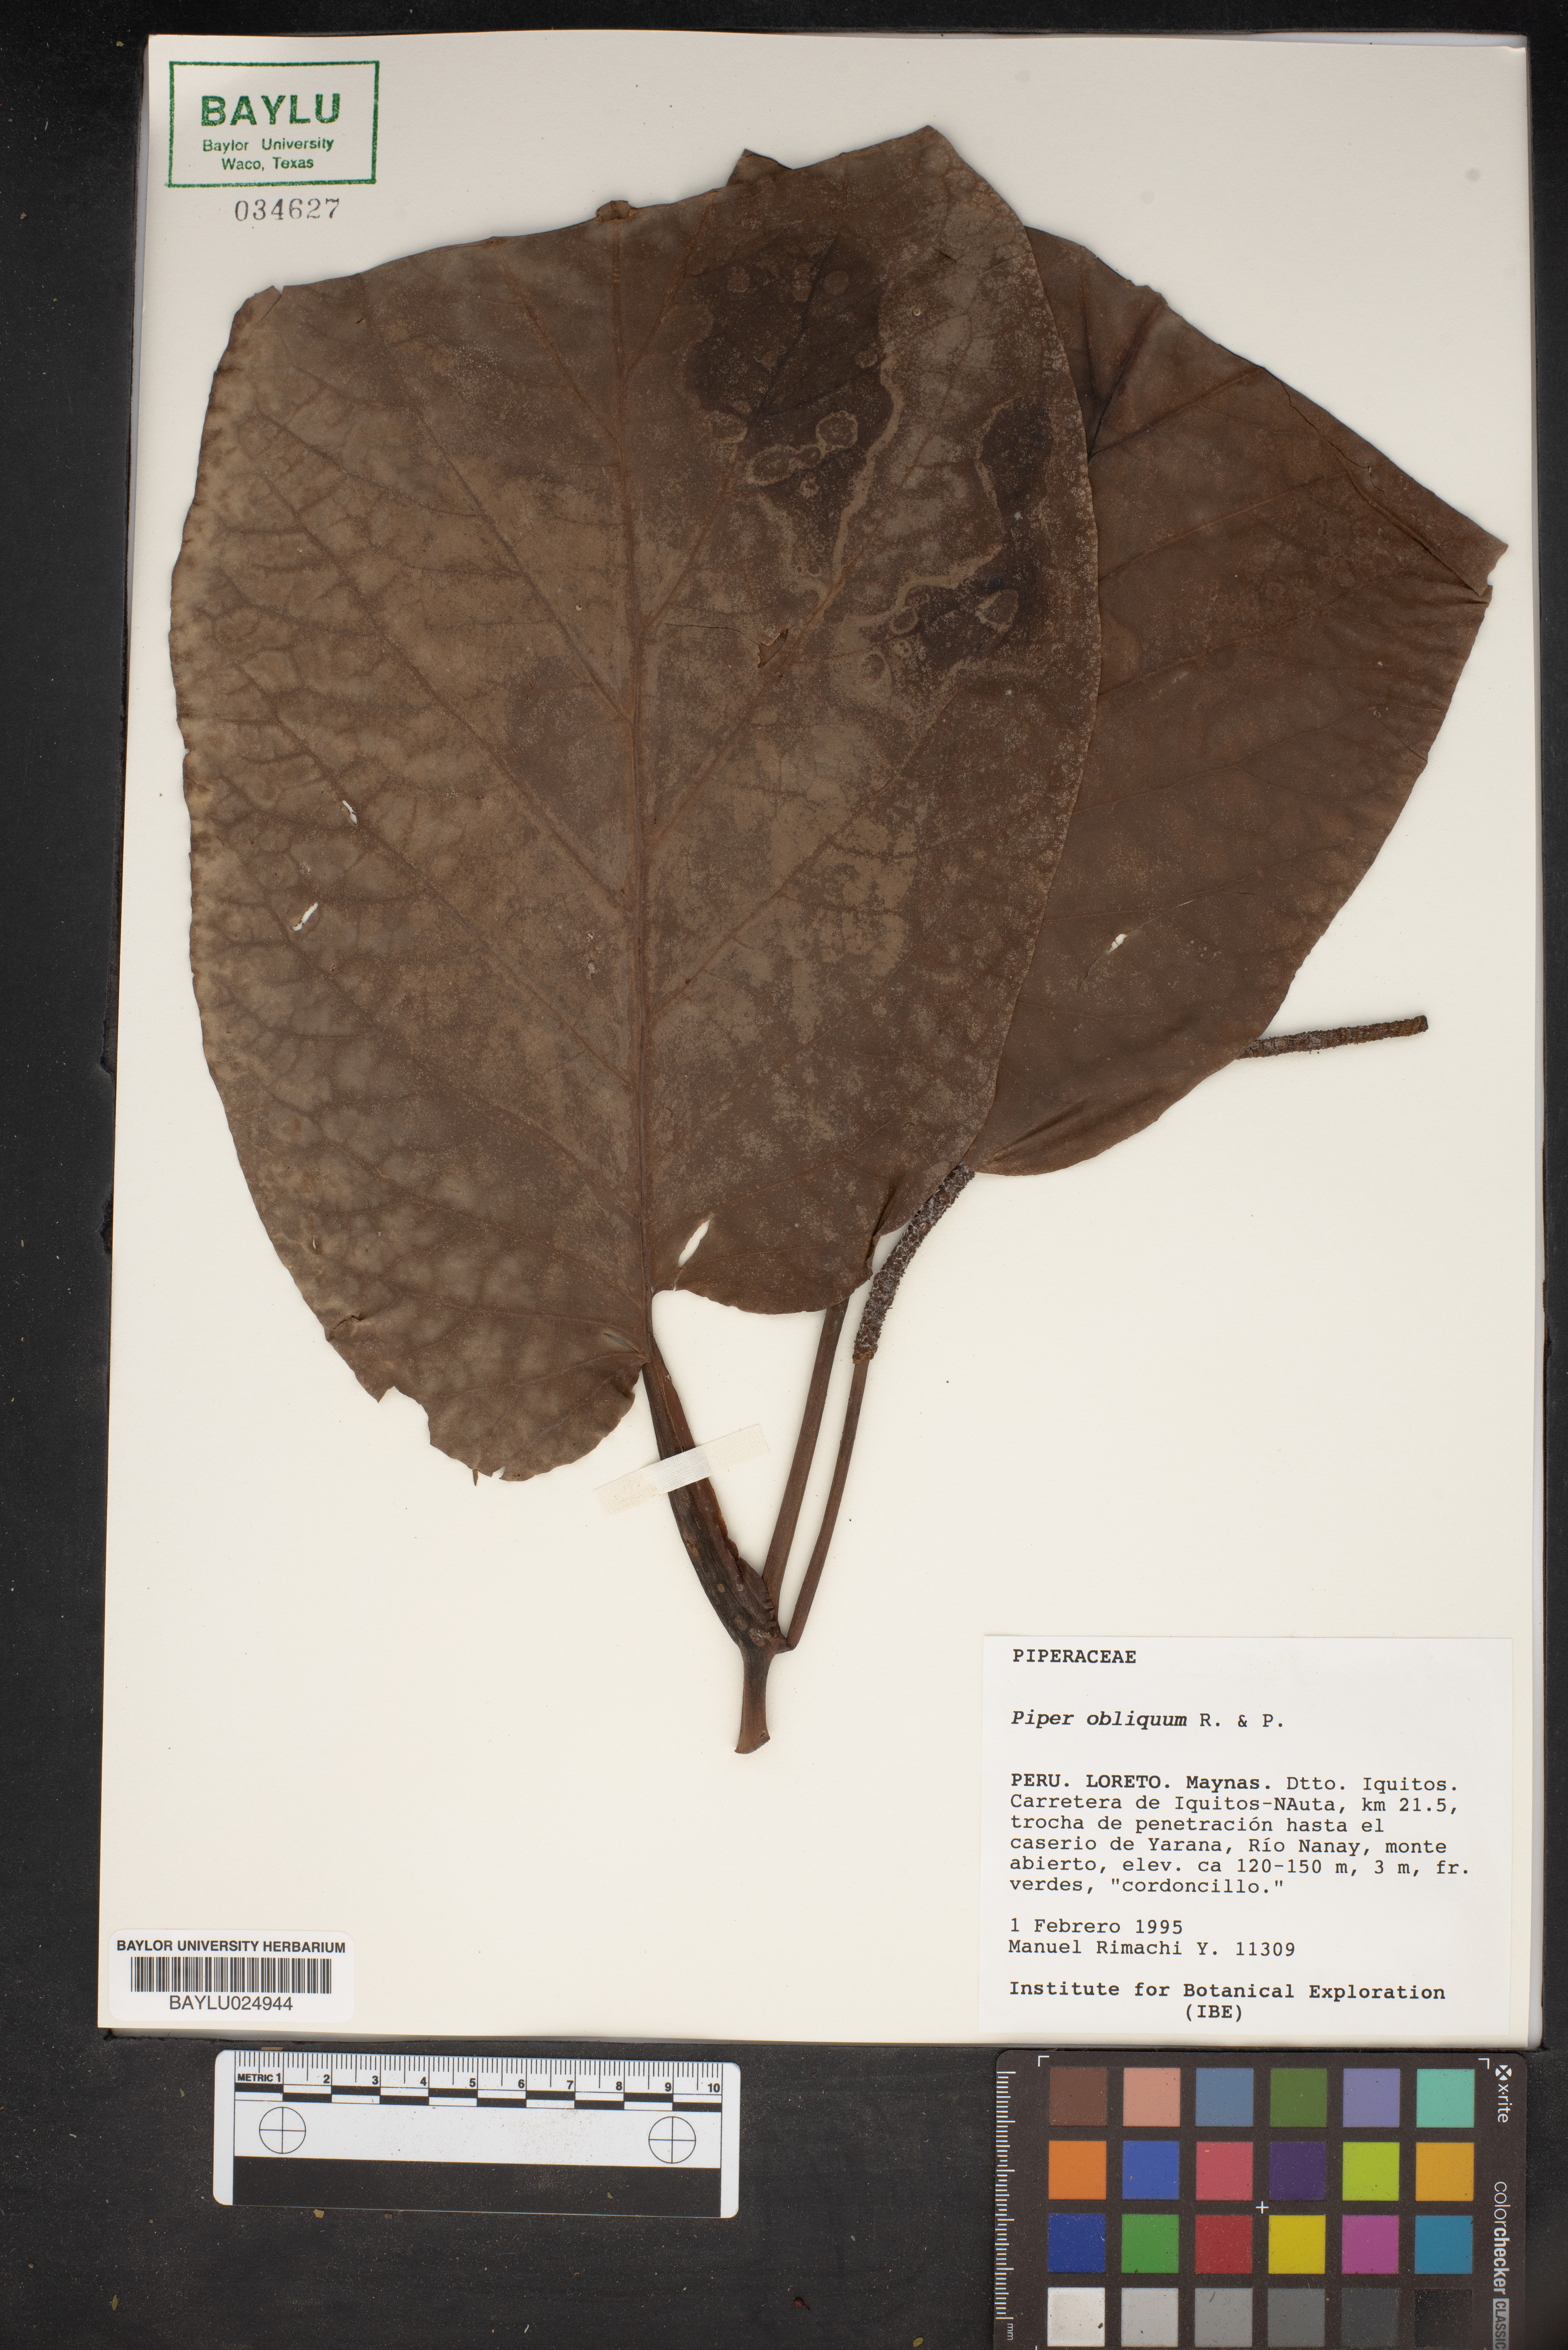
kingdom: Plantae
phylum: Tracheophyta
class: Magnoliopsida
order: Piperales
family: Piperaceae
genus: Piper
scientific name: Piper obliquum
